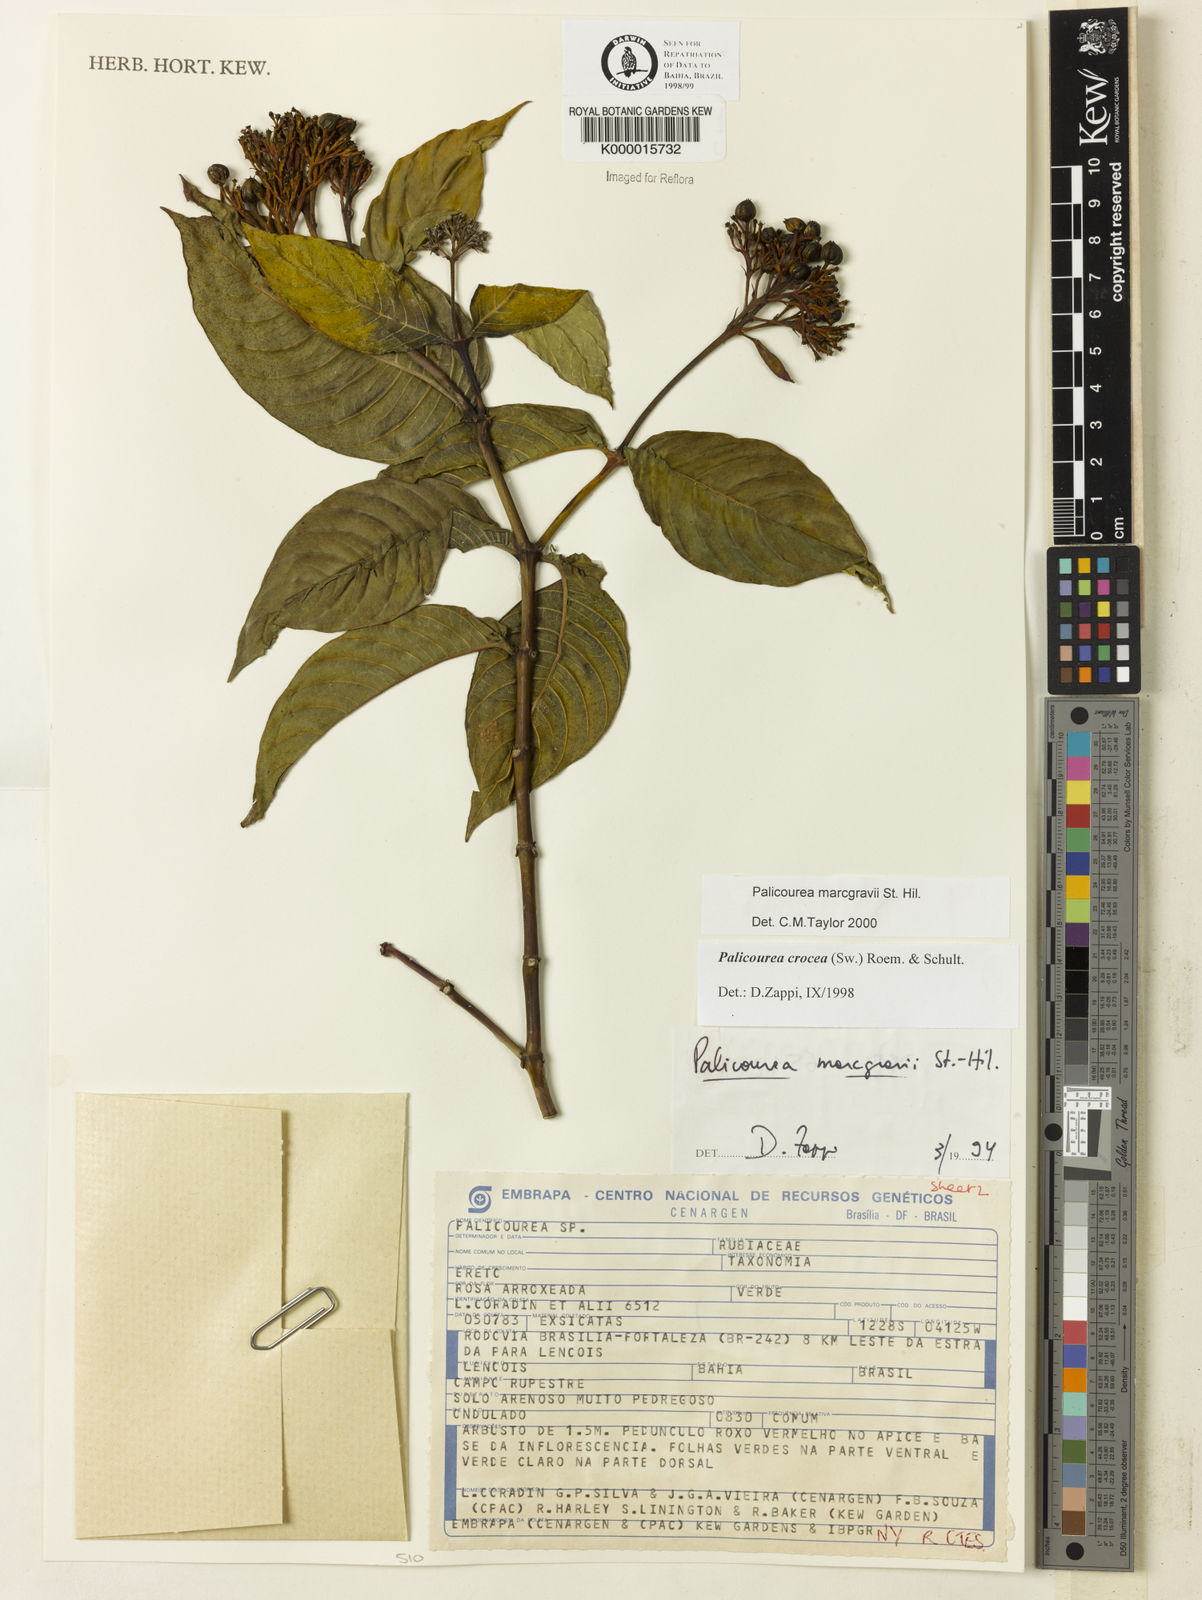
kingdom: Plantae
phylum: Tracheophyta
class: Magnoliopsida
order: Gentianales
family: Rubiaceae
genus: Palicourea
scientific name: Palicourea marcgravii
